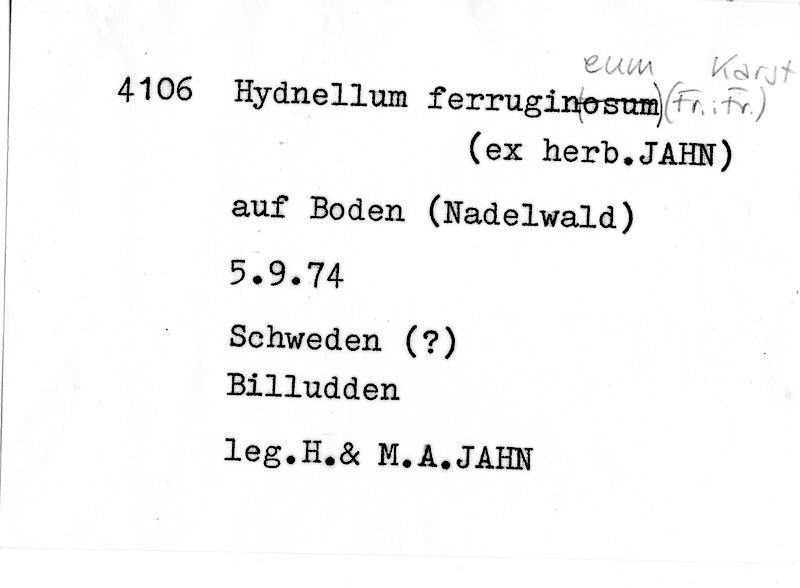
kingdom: Fungi
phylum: Basidiomycota
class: Agaricomycetes
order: Thelephorales
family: Bankeraceae
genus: Hydnellum
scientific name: Hydnellum ferrugineum
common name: Mealy tooth
